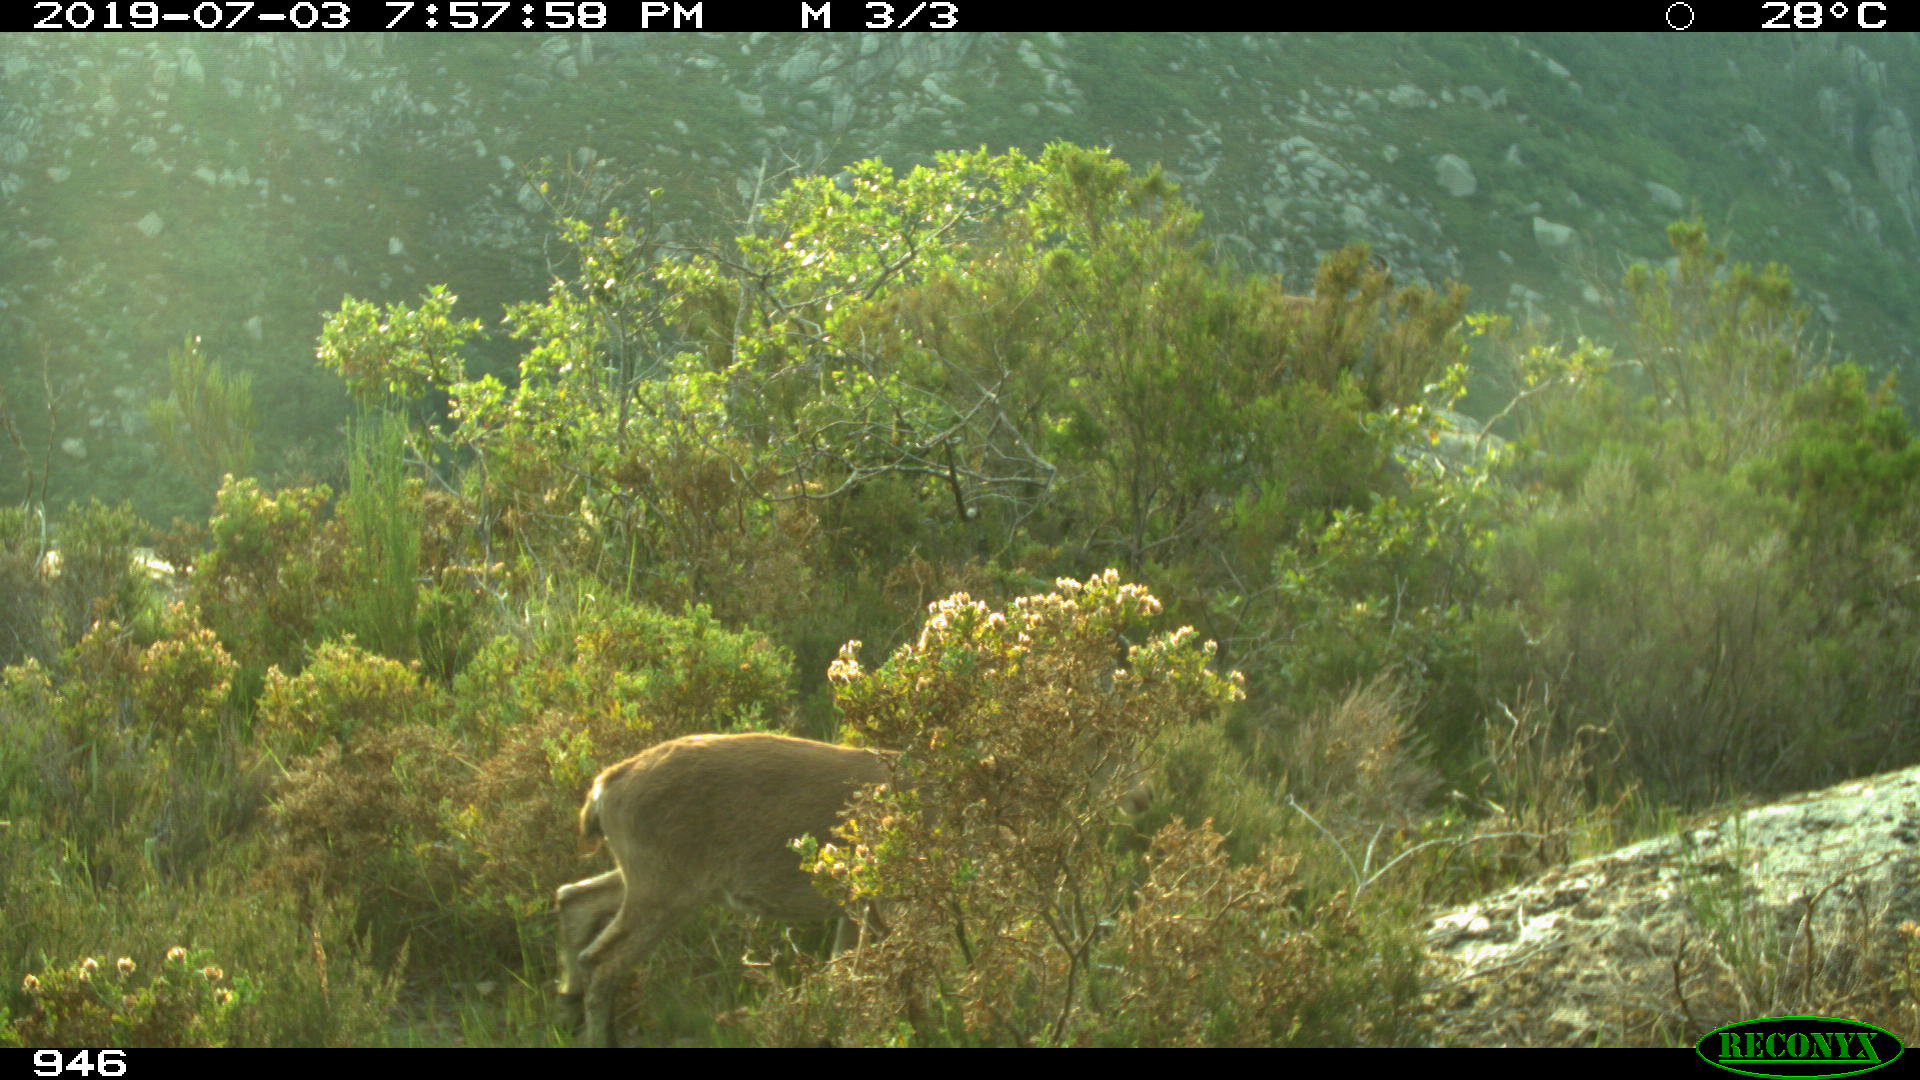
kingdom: Animalia
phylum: Chordata
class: Mammalia
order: Artiodactyla
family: Bovidae
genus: Capra
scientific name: Capra pyrenaica
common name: Spanish ibex
